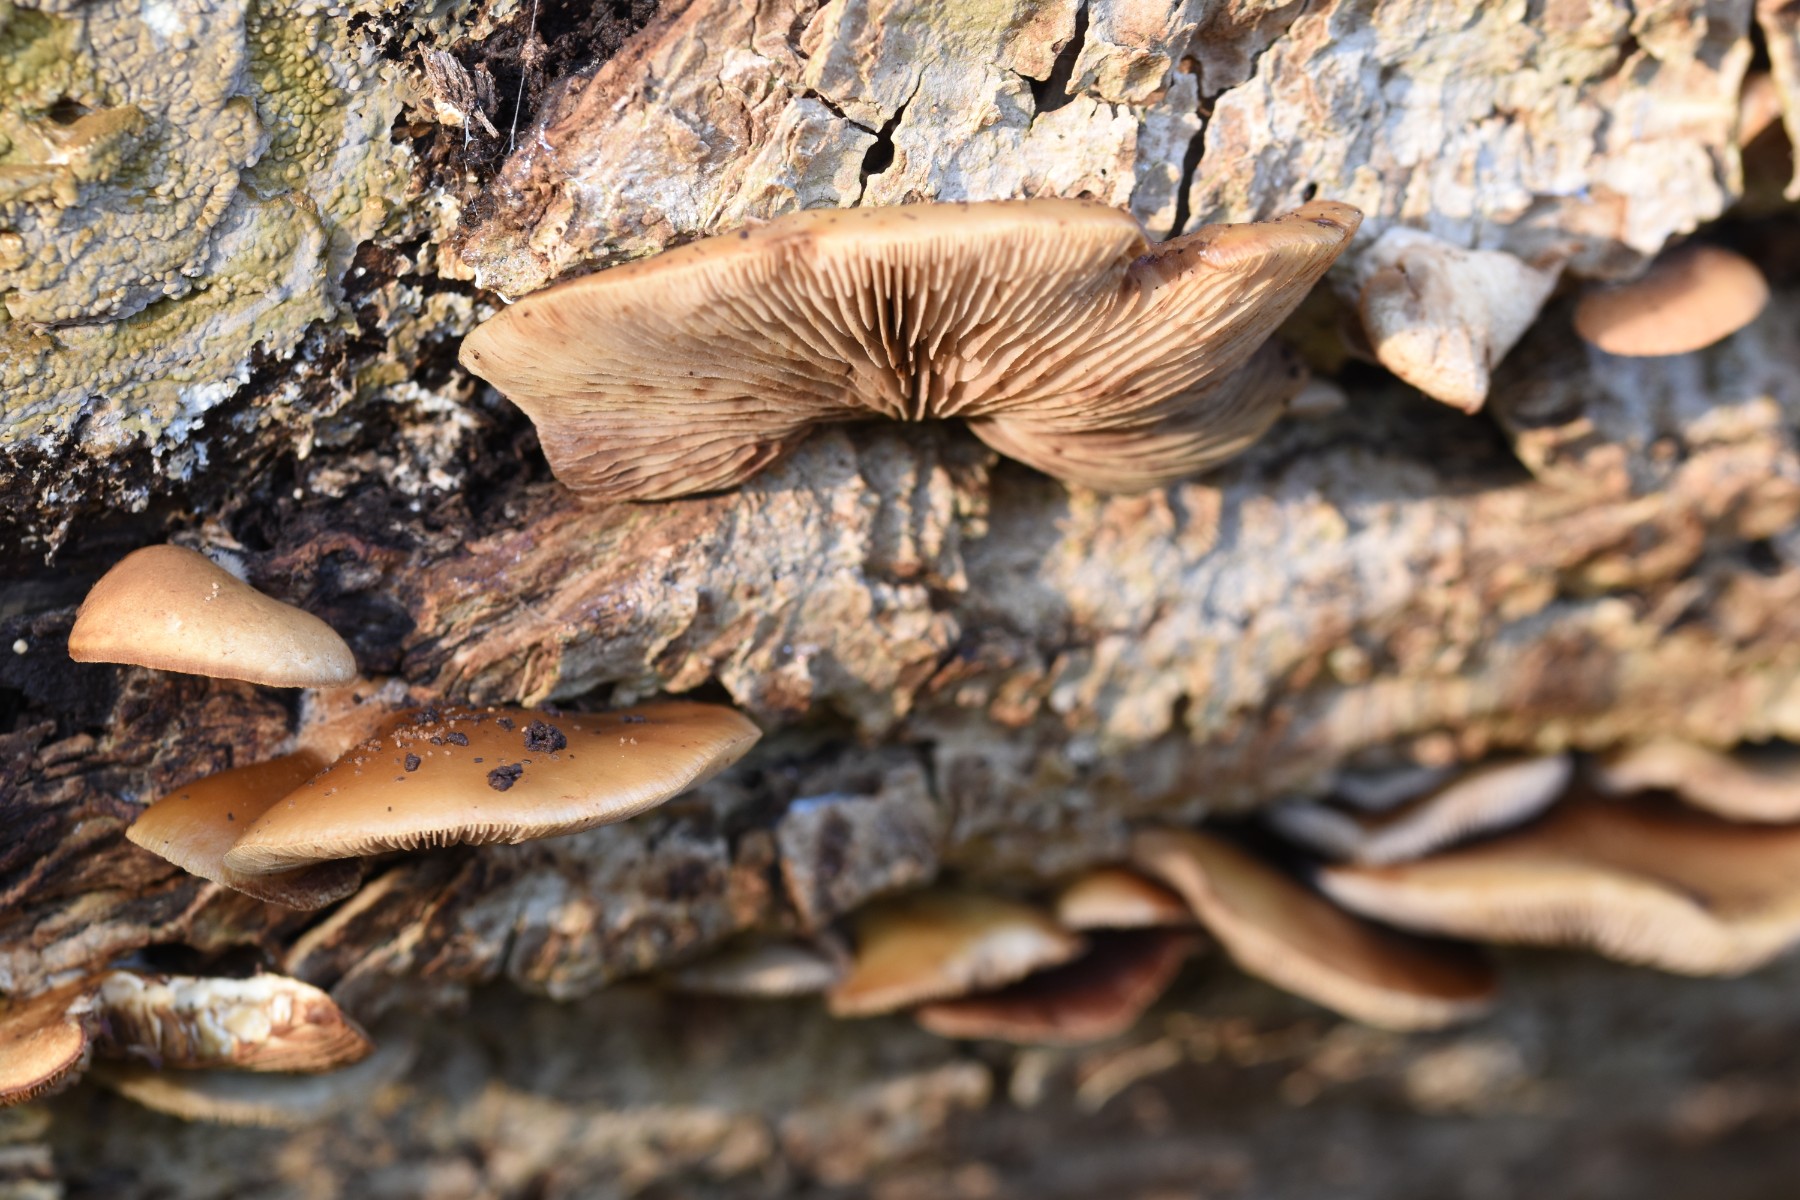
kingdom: Fungi
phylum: Basidiomycota
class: Agaricomycetes
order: Agaricales
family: Crepidotaceae
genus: Crepidotus
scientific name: Crepidotus mollis
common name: blød muslingesvamp
